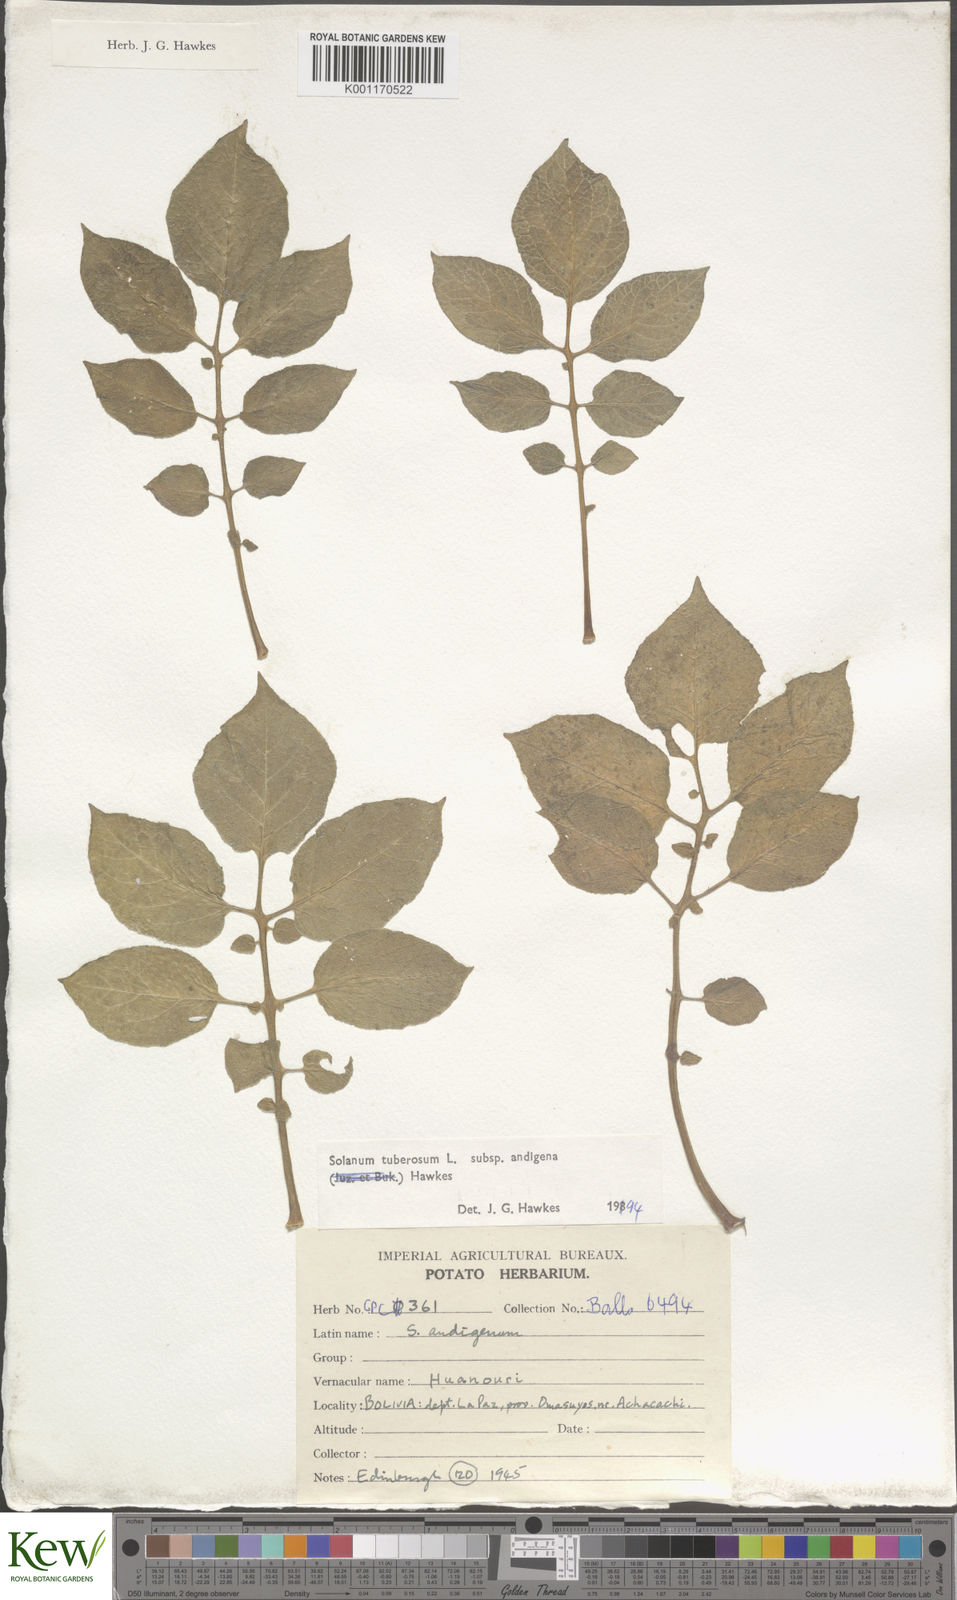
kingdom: Plantae
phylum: Tracheophyta
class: Magnoliopsida
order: Solanales
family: Solanaceae
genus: Solanum
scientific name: Solanum tuberosum
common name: Potato
